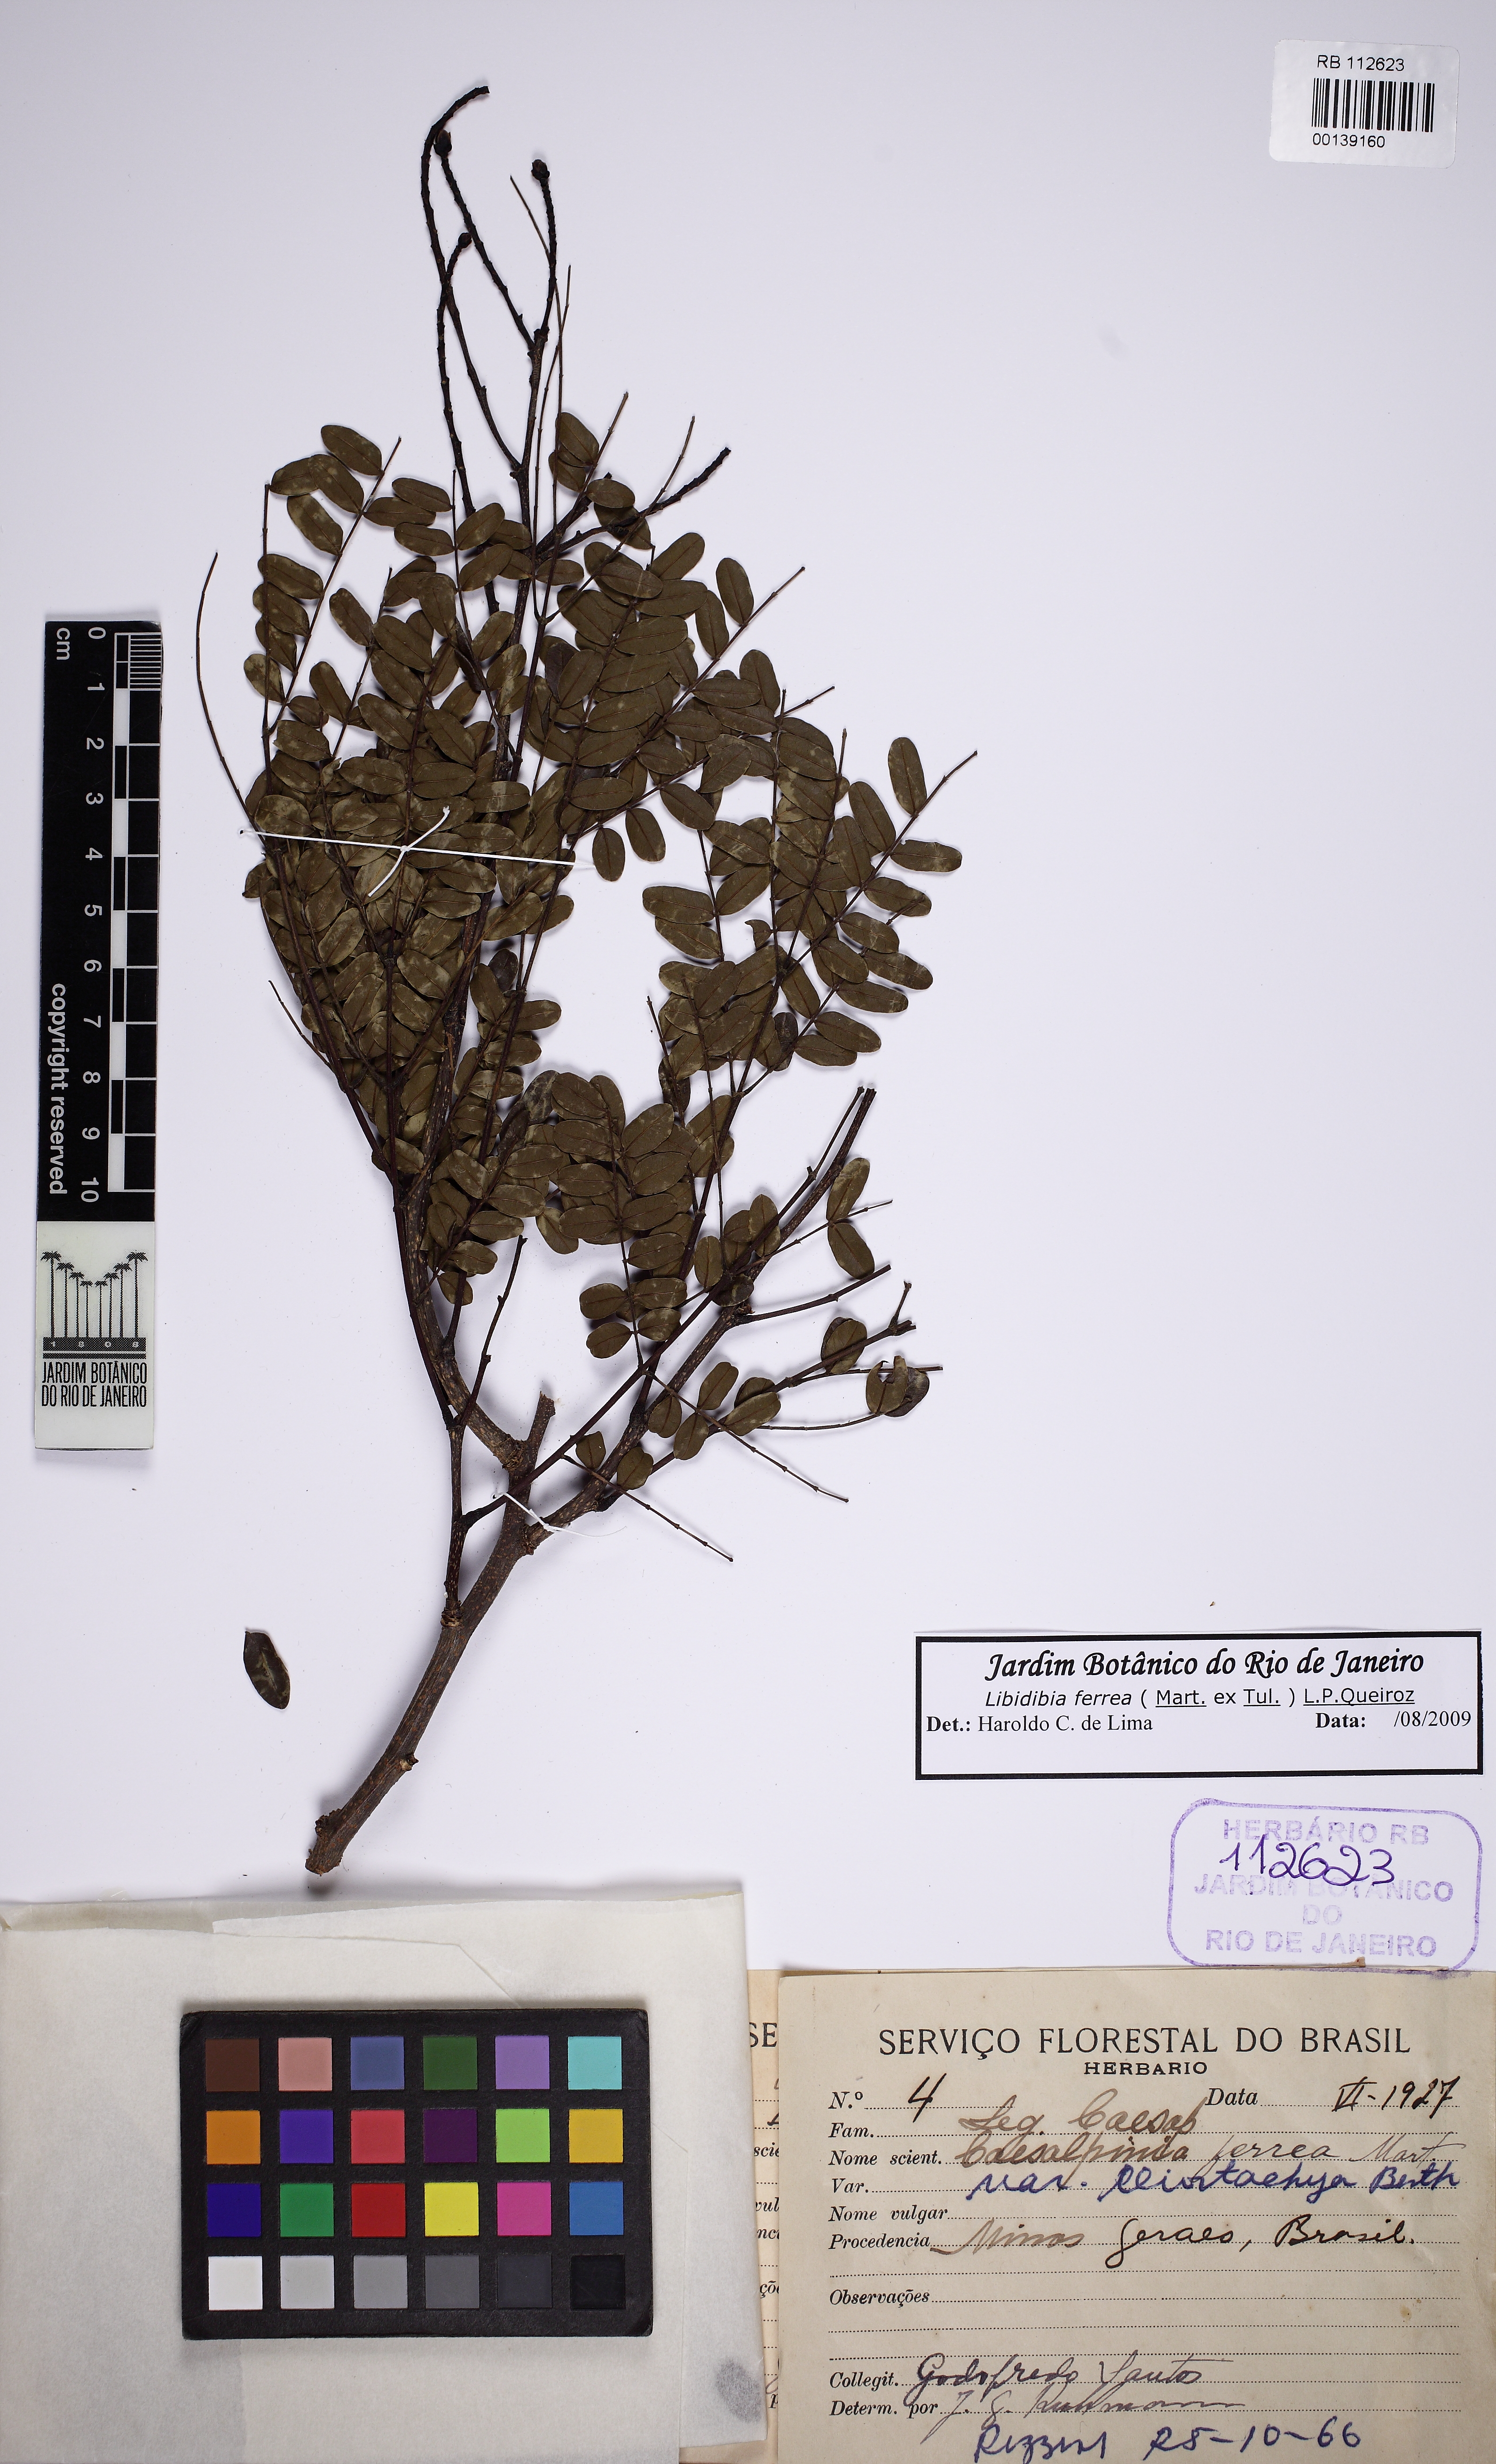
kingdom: Plantae
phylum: Tracheophyta
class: Magnoliopsida
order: Fabales
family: Fabaceae
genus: Libidibia
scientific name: Libidibia ferrea
